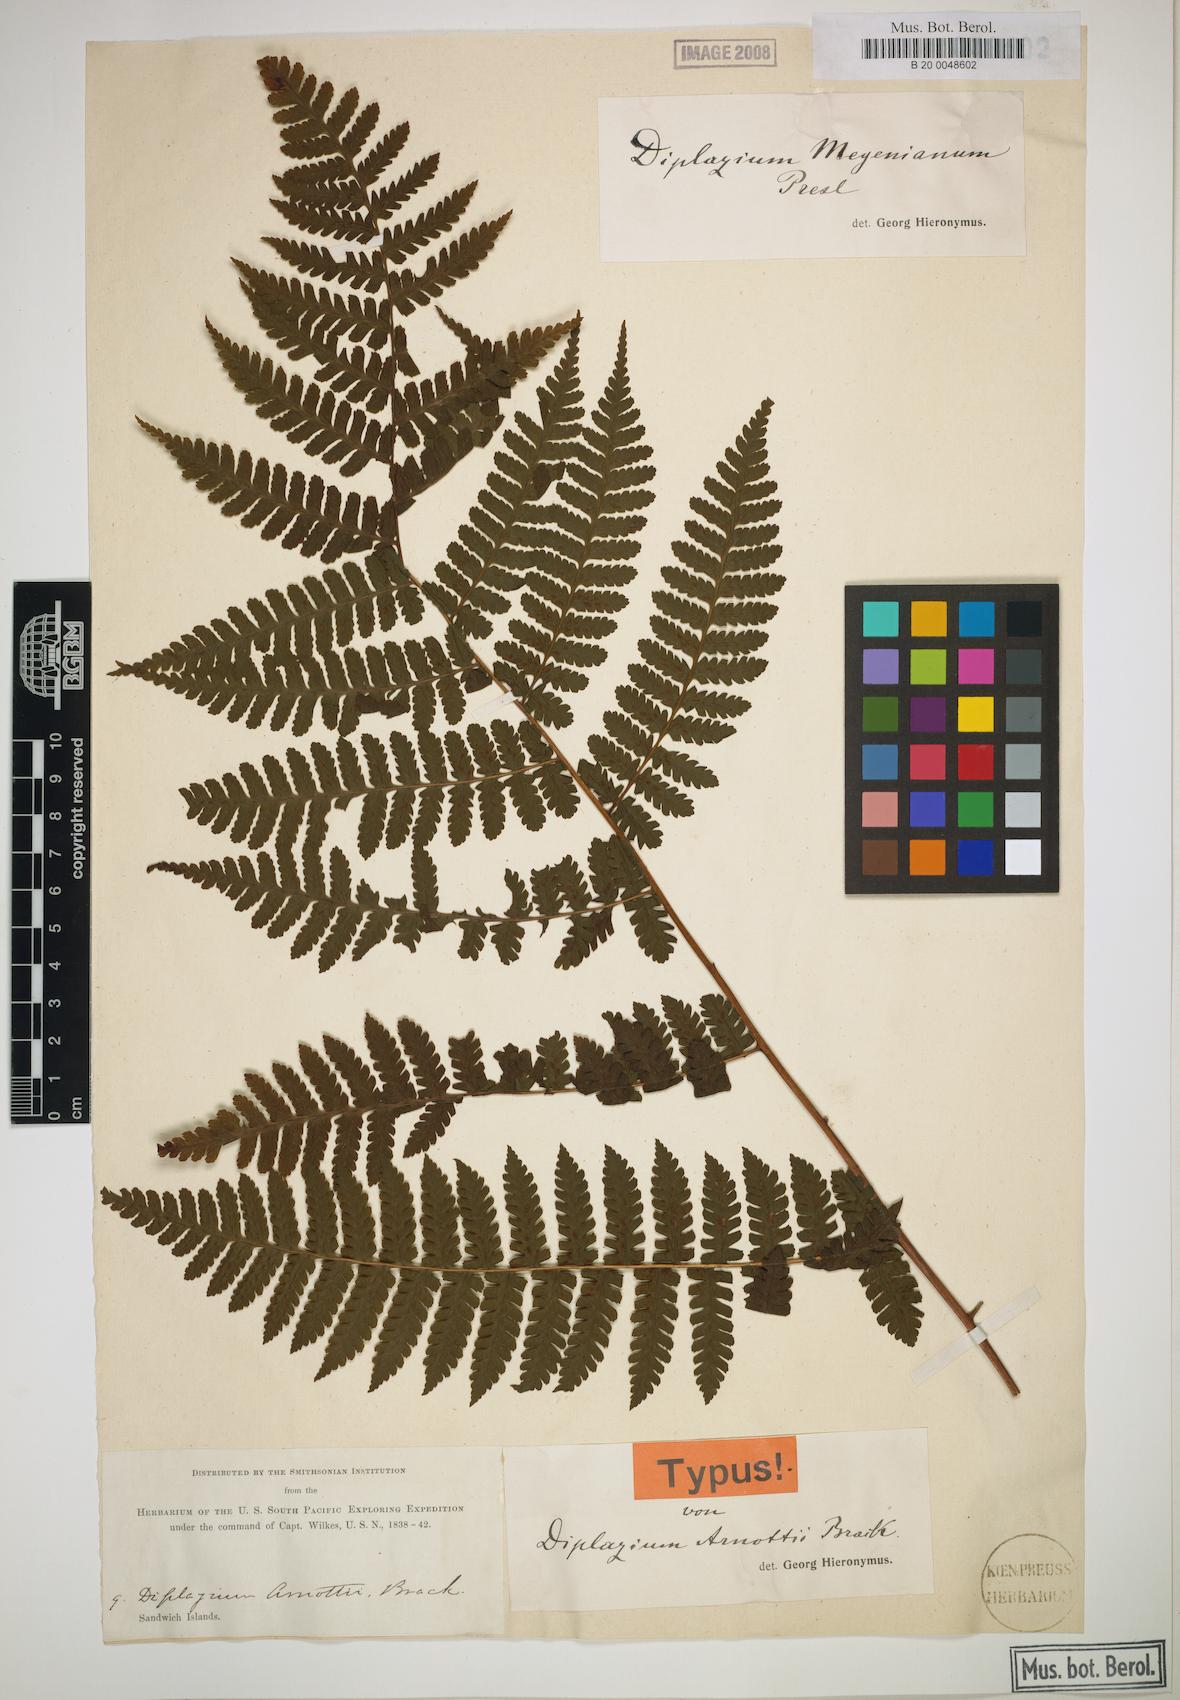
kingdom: Plantae
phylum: Tracheophyta
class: Polypodiopsida
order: Polypodiales
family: Athyriaceae
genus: Diplazium
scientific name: Diplazium melanopodium
